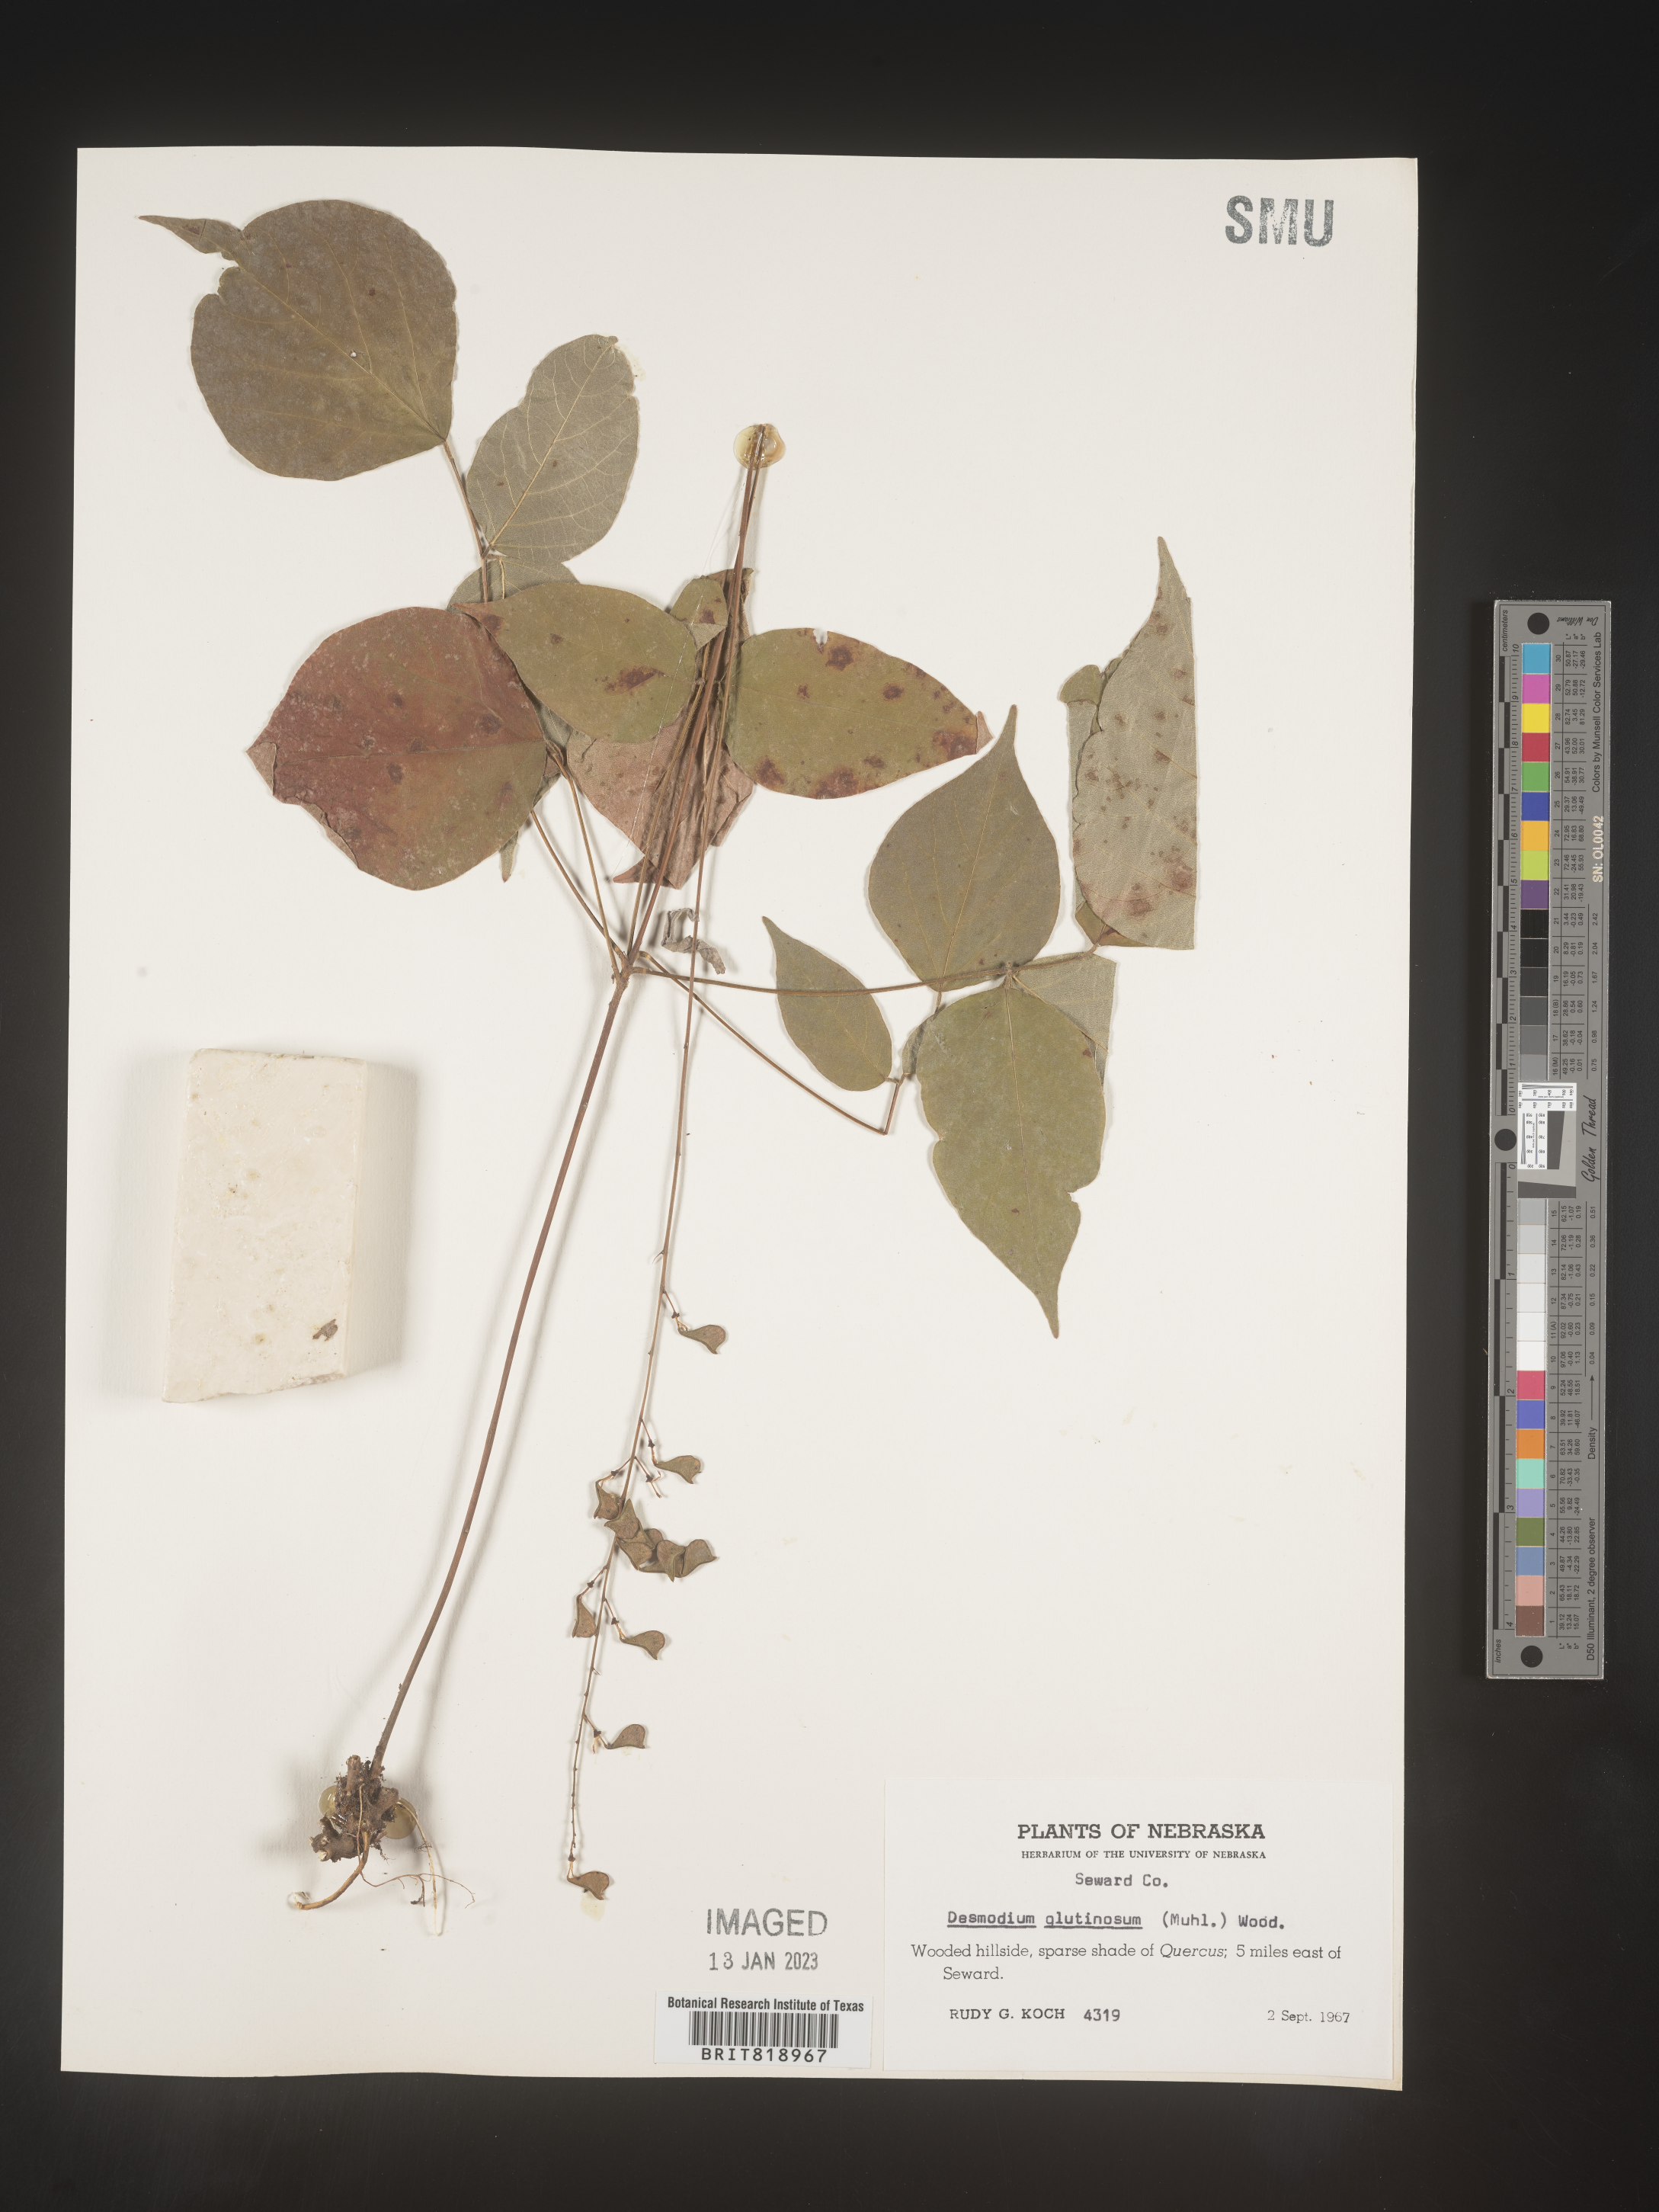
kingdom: Plantae
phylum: Tracheophyta
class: Magnoliopsida
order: Fabales
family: Fabaceae
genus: Hylodesmum
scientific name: Hylodesmum glutinosum
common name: Clustered-leaved tick-trefoil
